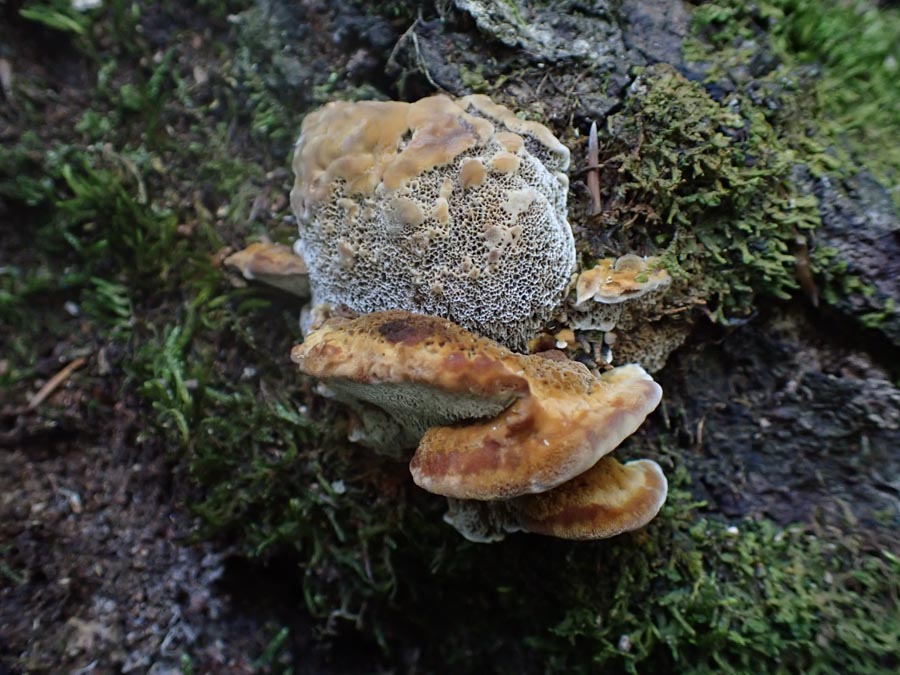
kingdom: Fungi
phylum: Basidiomycota
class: Agaricomycetes
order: Hymenochaetales
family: Hymenochaetaceae
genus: Inonotus
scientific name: Inonotus cuticularis
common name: kroghåret spejlporesvamp
